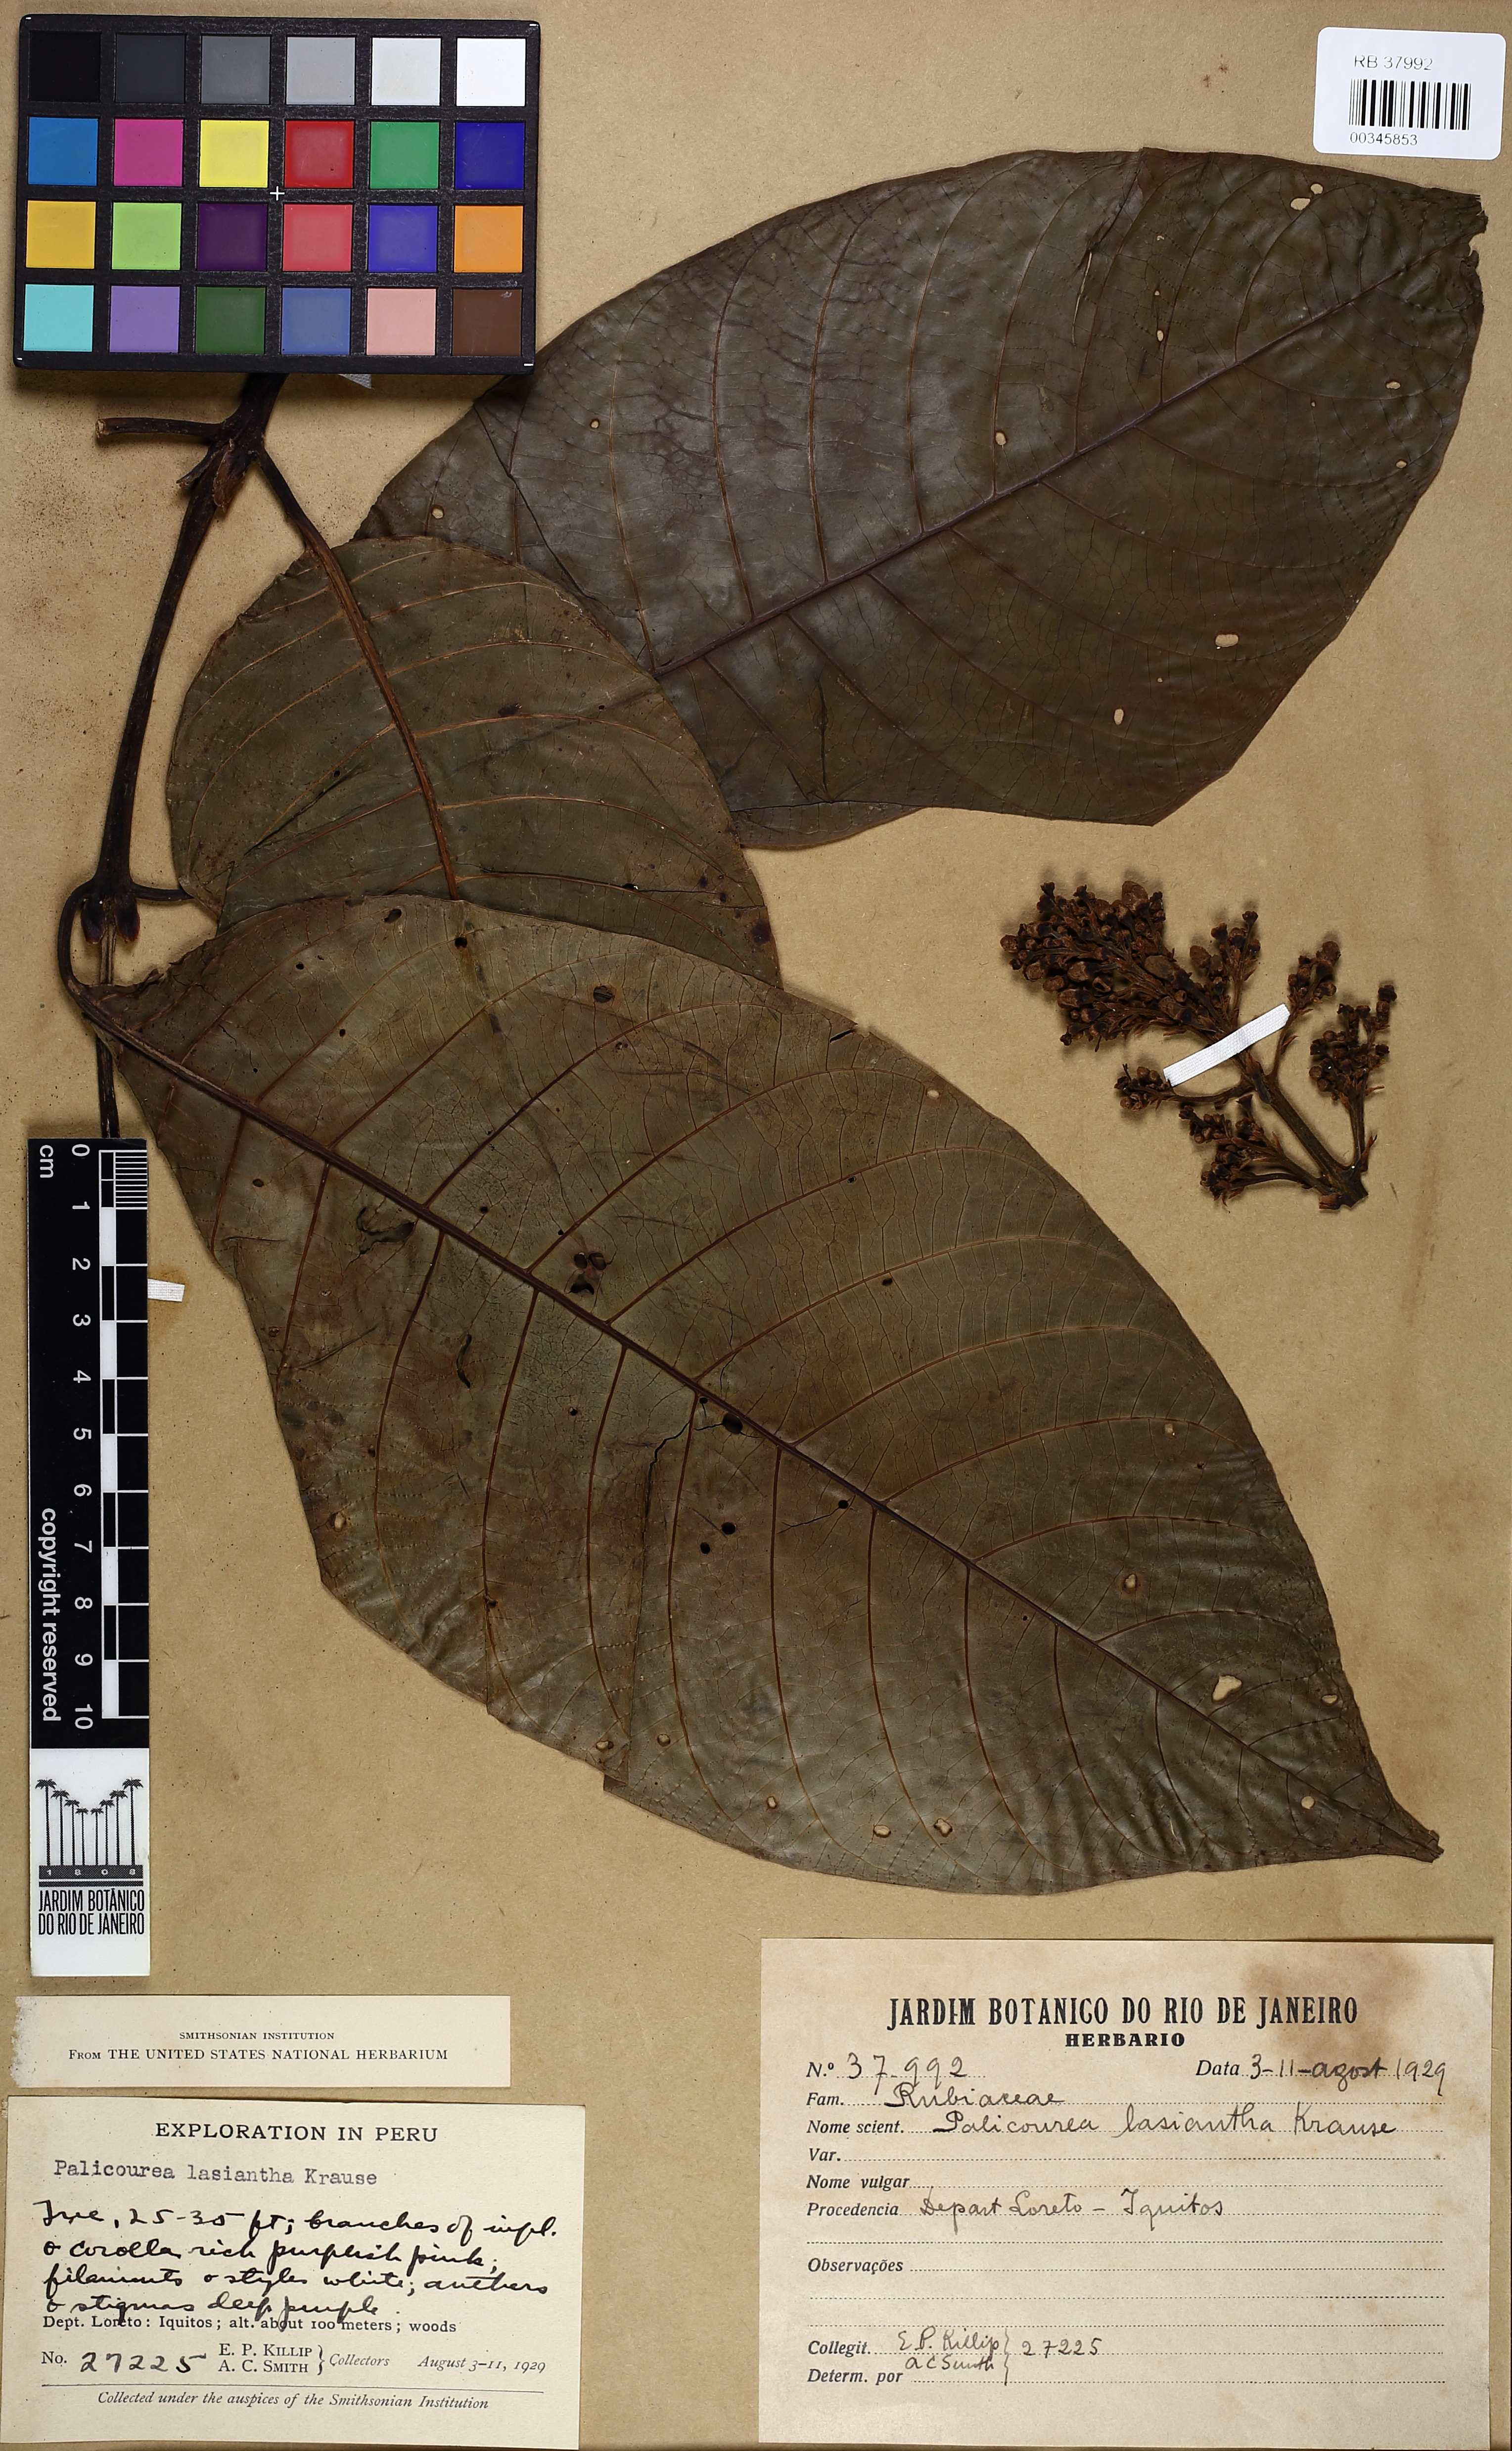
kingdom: Plantae
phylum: Tracheophyta
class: Magnoliopsida
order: Gentianales
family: Rubiaceae
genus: Palicourea
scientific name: Palicourea lasiantha
